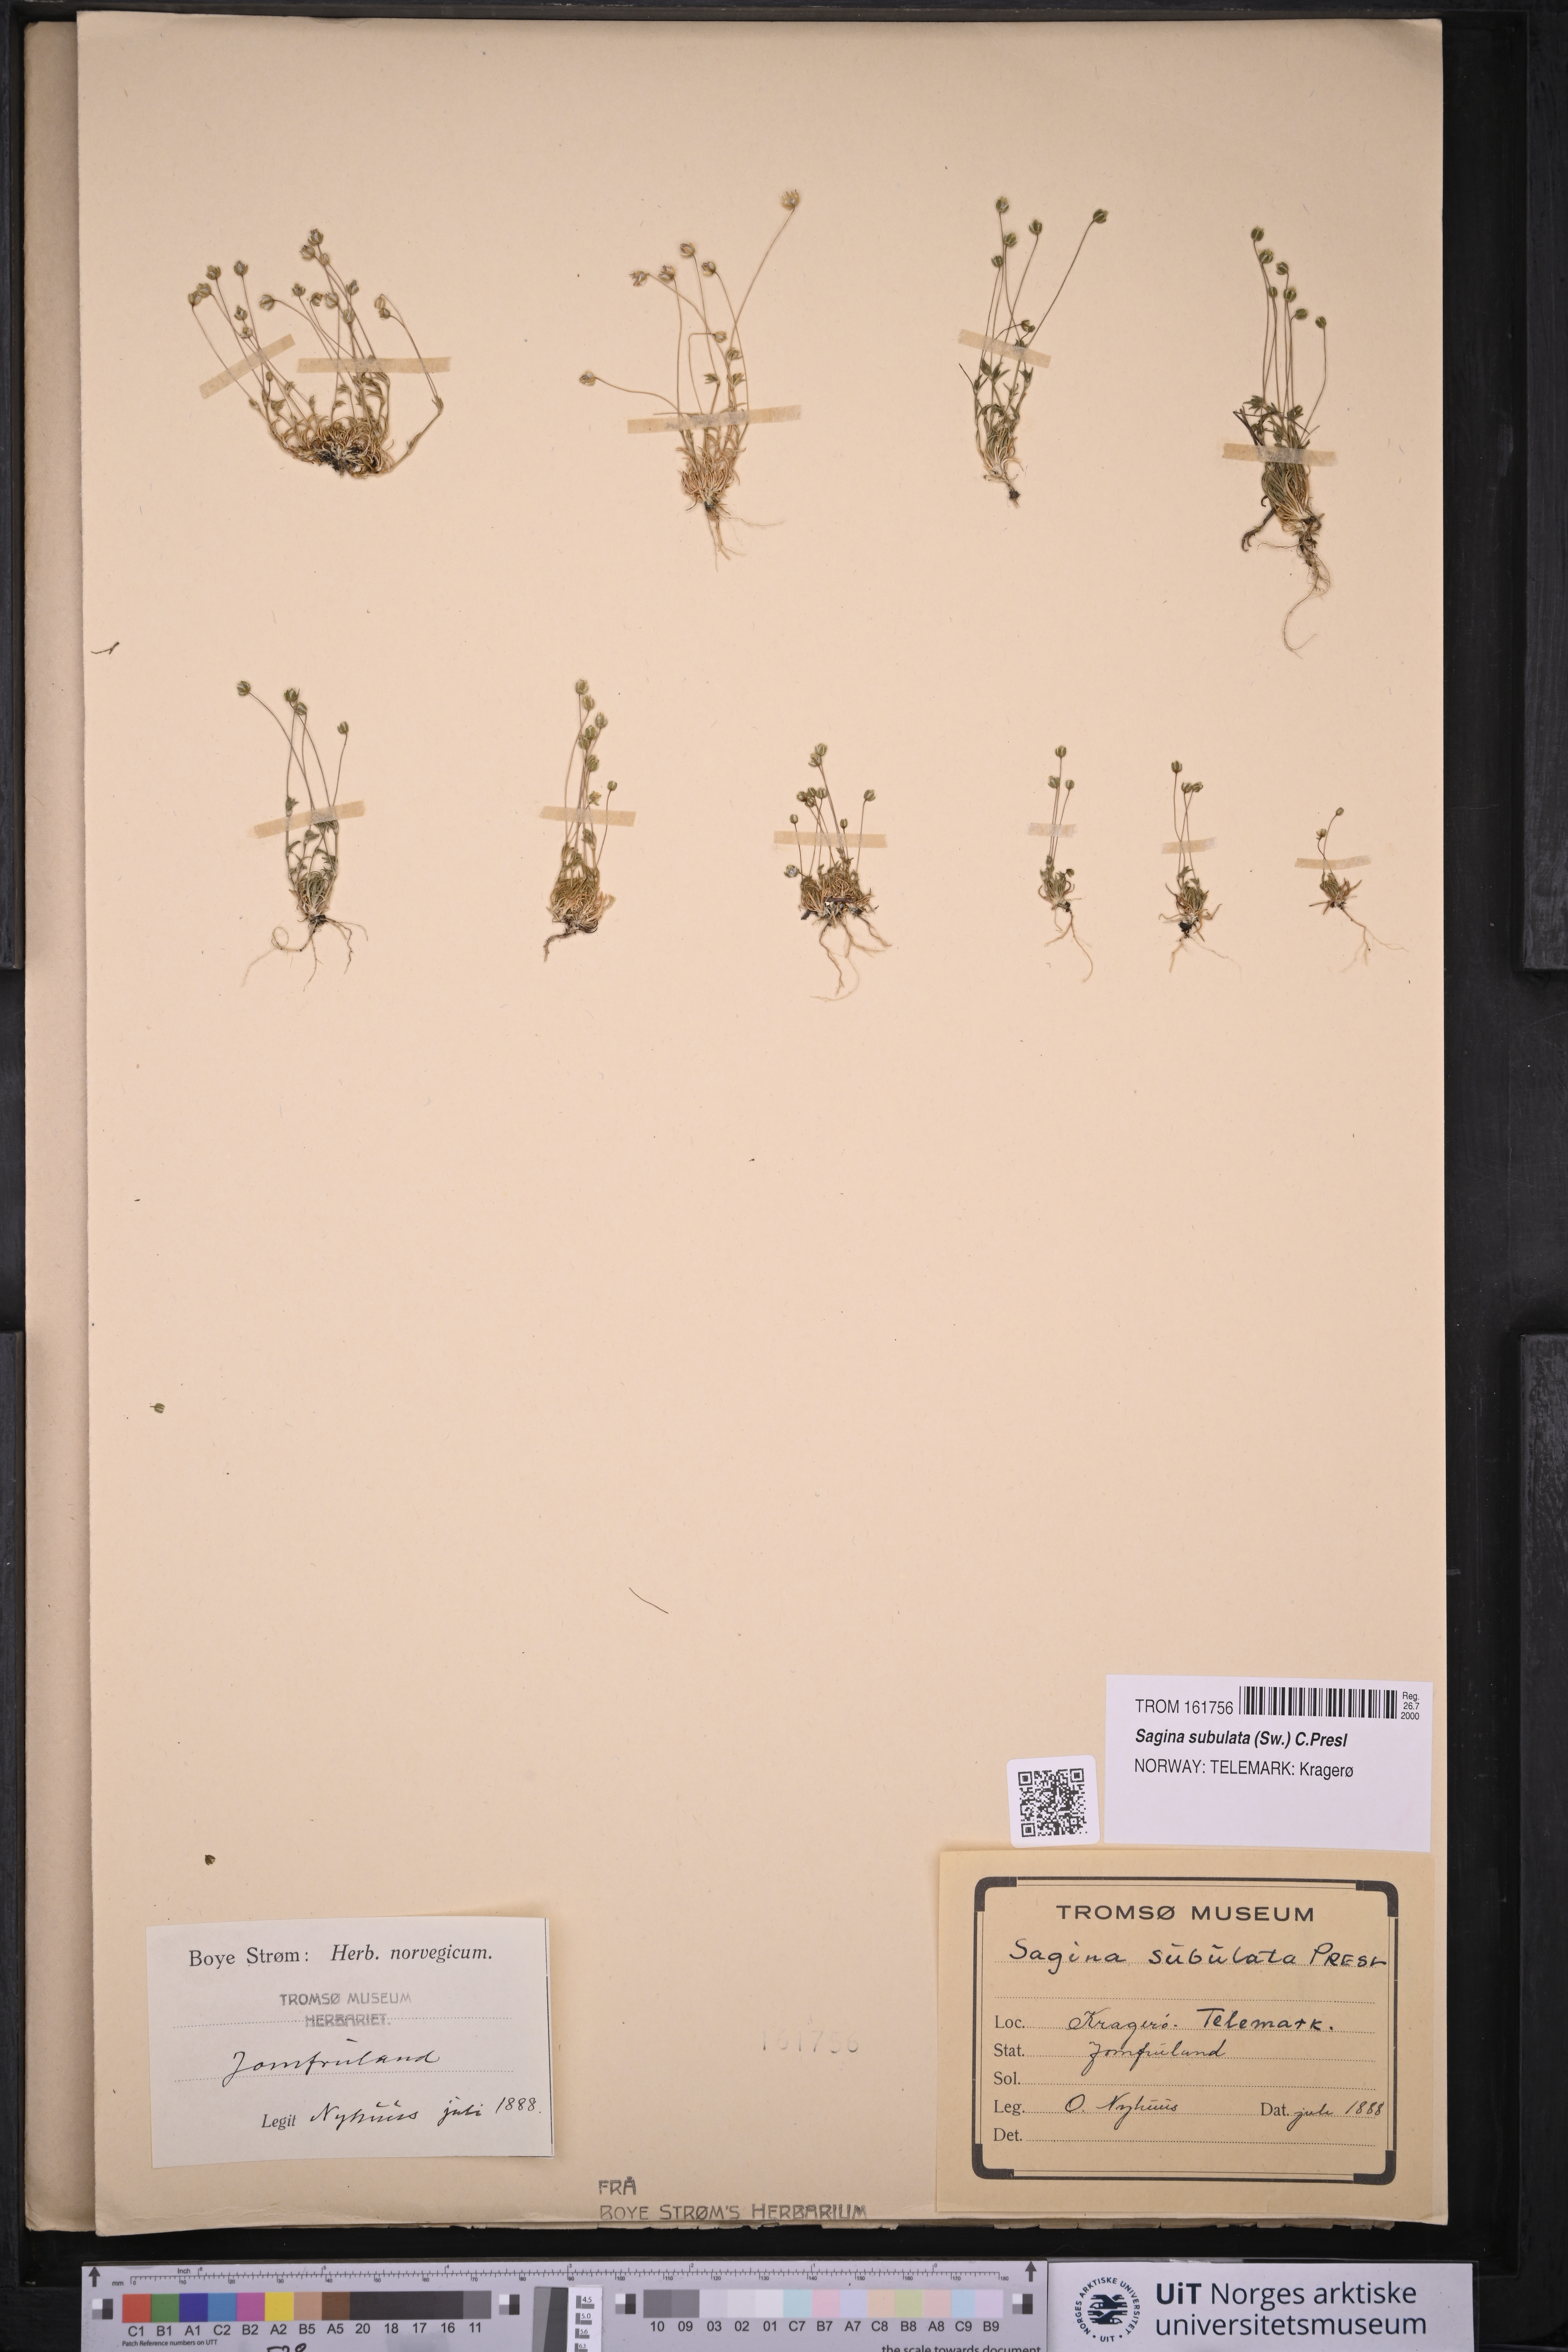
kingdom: Plantae
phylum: Tracheophyta
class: Magnoliopsida
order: Caryophyllales
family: Caryophyllaceae
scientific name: Caryophyllaceae
